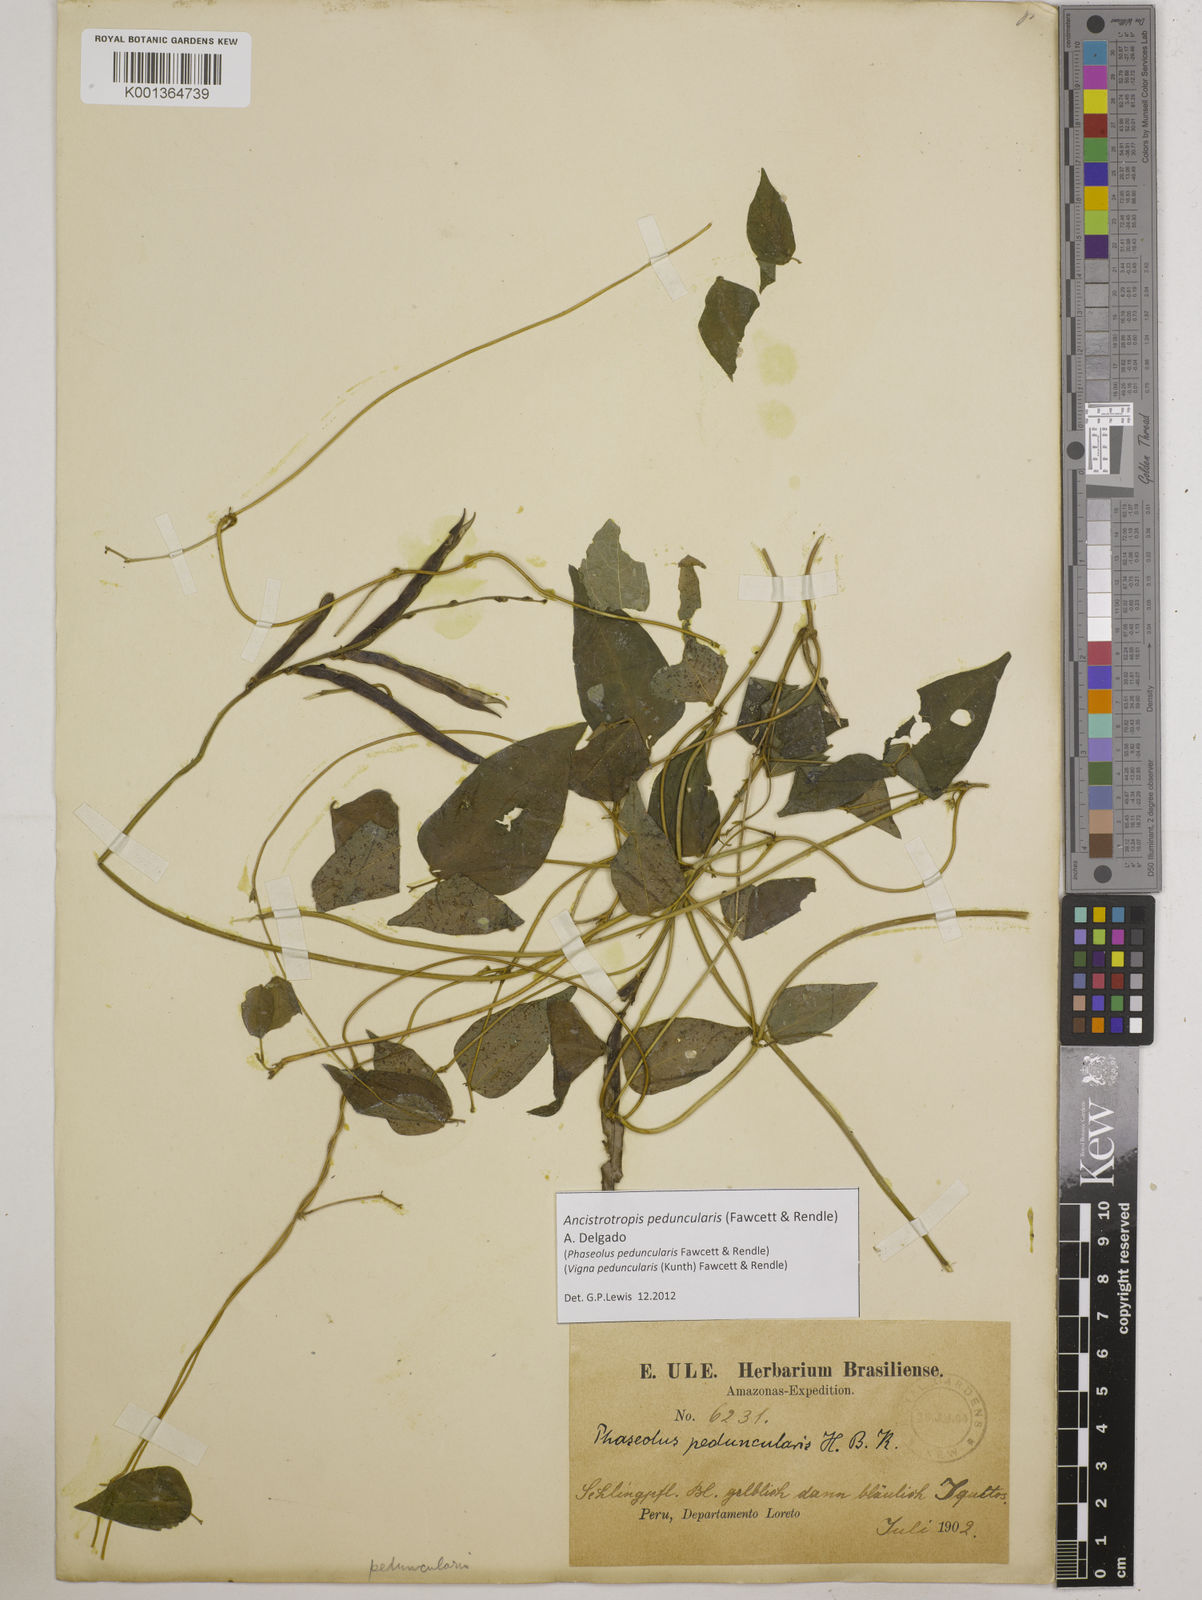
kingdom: Plantae
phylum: Tracheophyta
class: Magnoliopsida
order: Fabales
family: Fabaceae
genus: Ancistrotropis
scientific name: Ancistrotropis peduncularis
